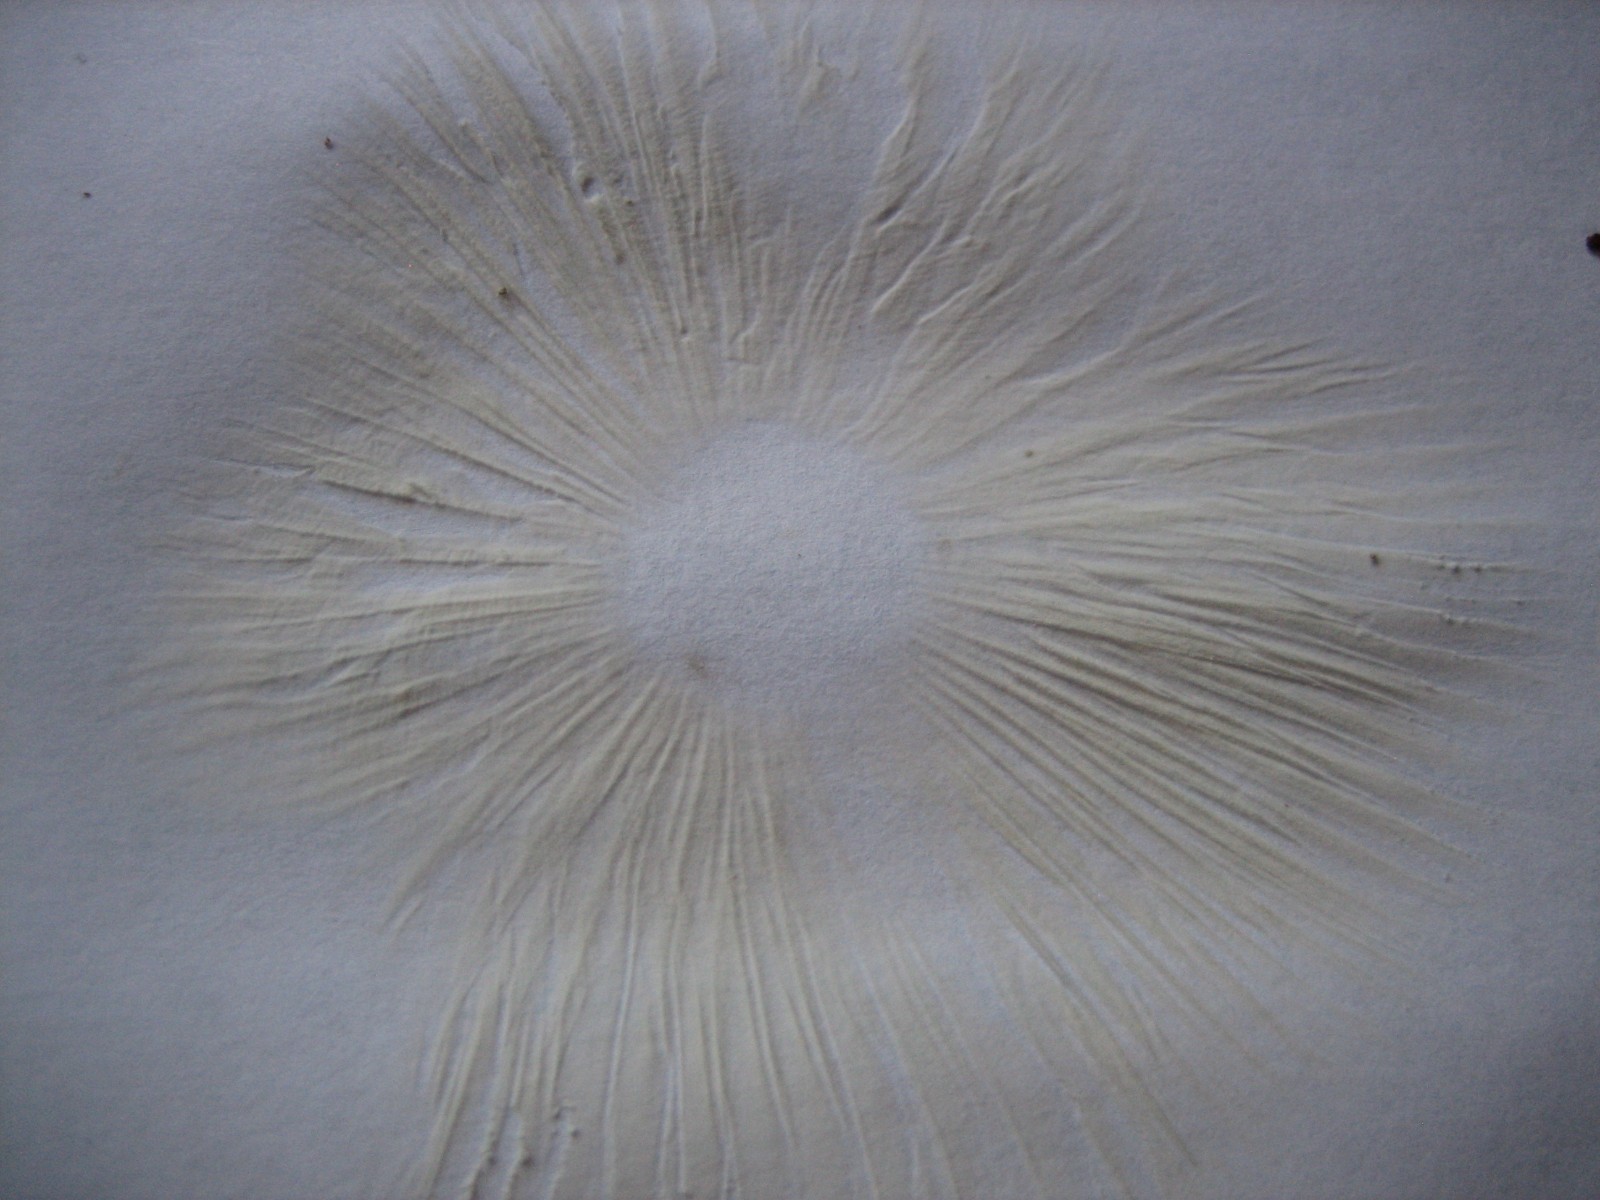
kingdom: Fungi
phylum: Basidiomycota
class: Agaricomycetes
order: Agaricales
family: Tricholomataceae
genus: Megacollybia
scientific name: Megacollybia platyphylla
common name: bredbladet væbnerhat
